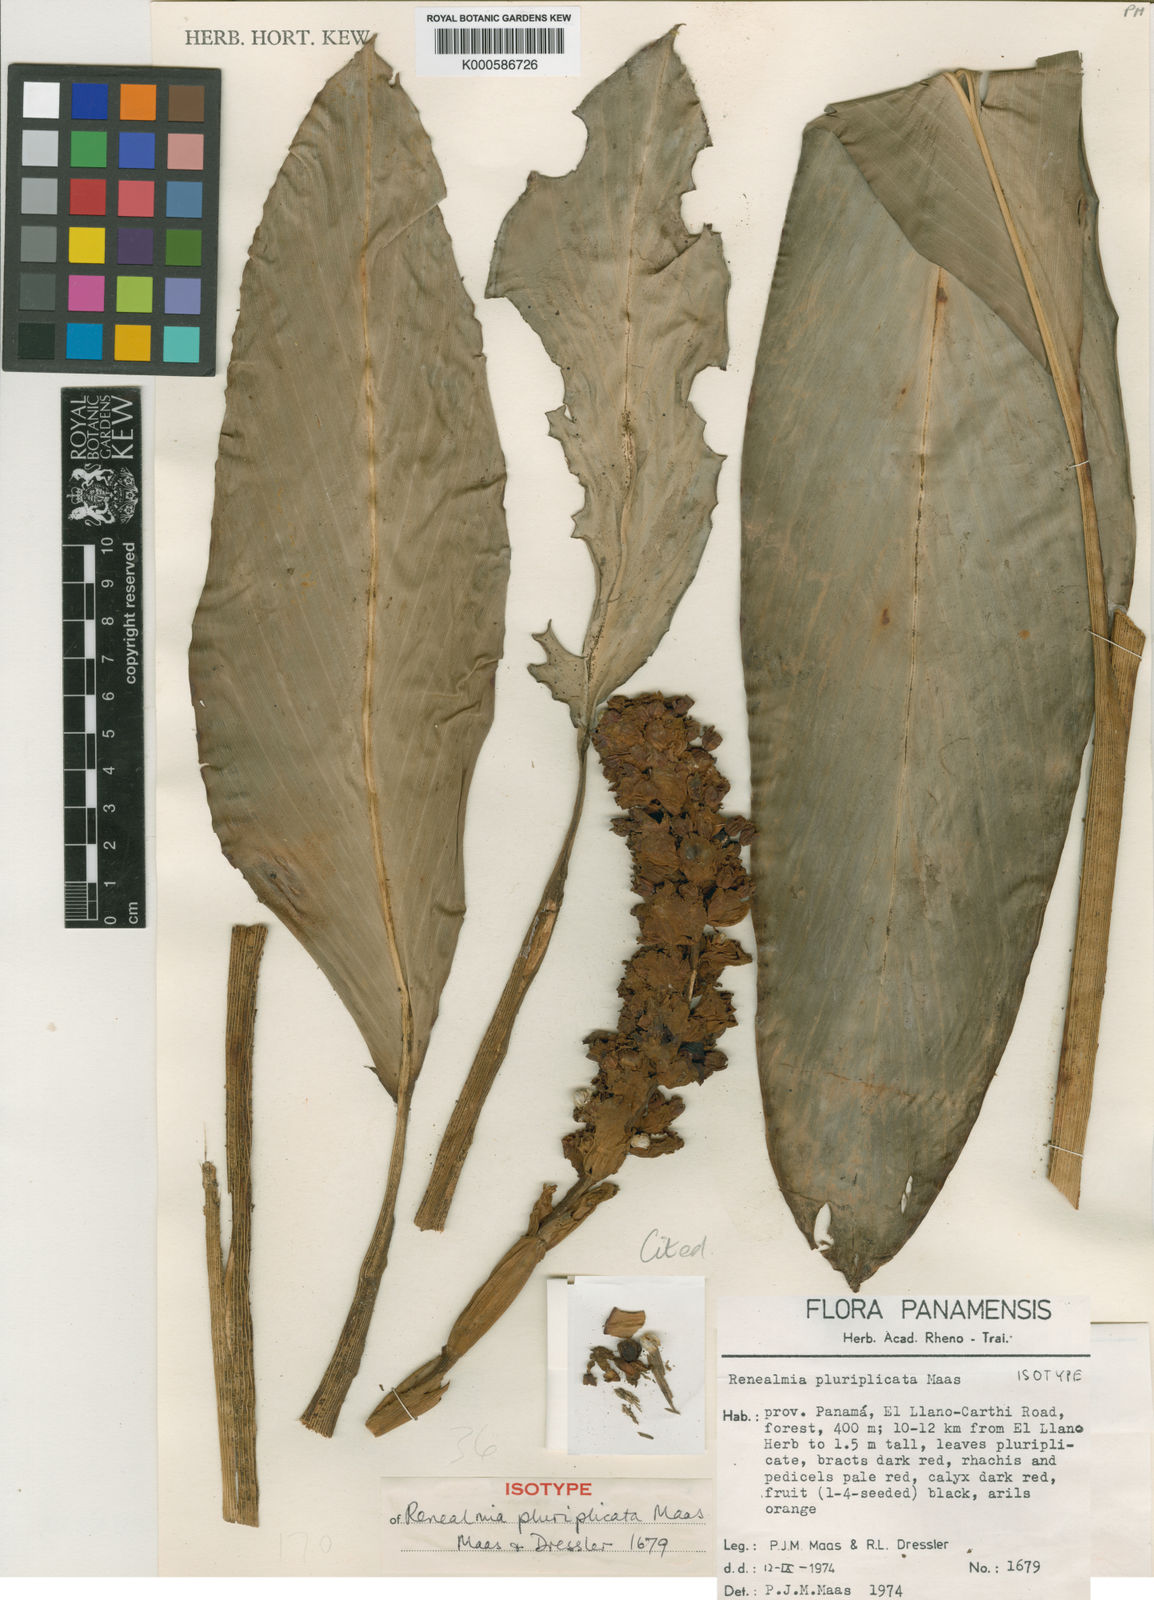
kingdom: Plantae
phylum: Tracheophyta
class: Liliopsida
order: Zingiberales
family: Zingiberaceae
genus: Renealmia
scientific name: Renealmia pluriplicata
